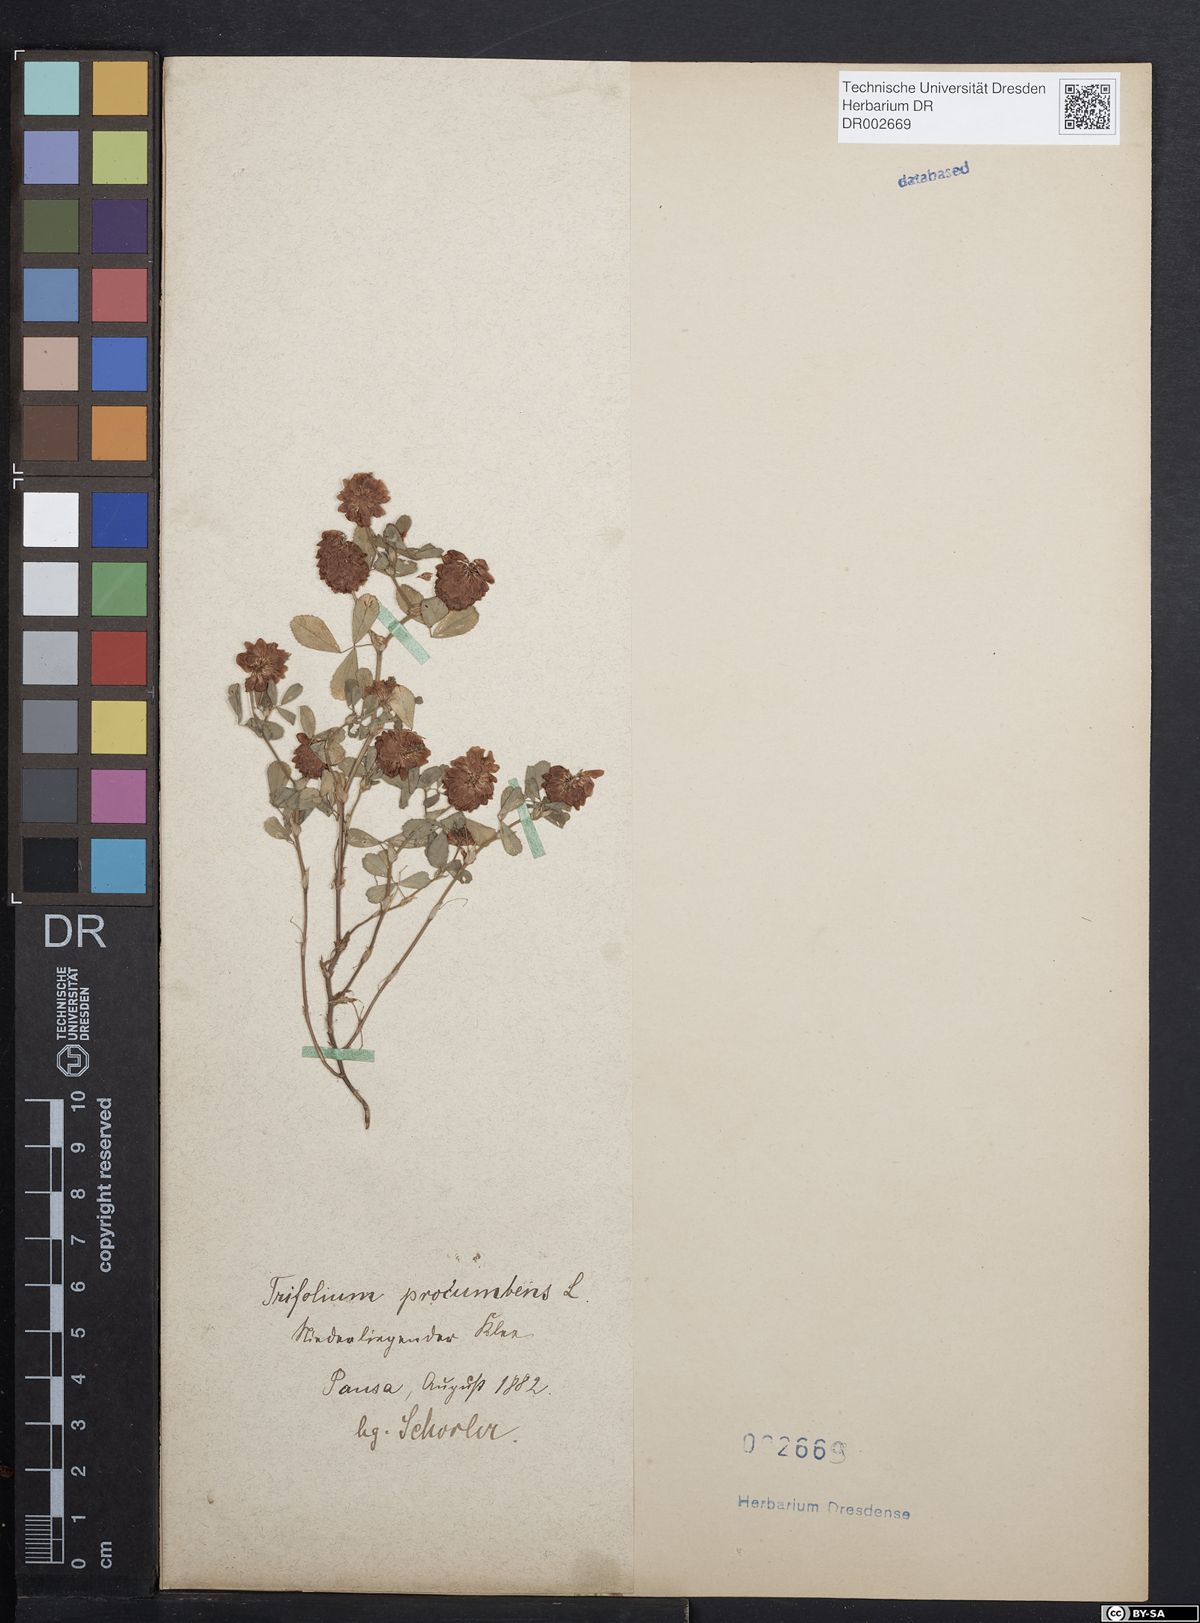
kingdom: Plantae
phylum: Tracheophyta
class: Magnoliopsida
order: Fabales
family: Fabaceae
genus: Trifolium
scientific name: Trifolium campestre
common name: Field clover
